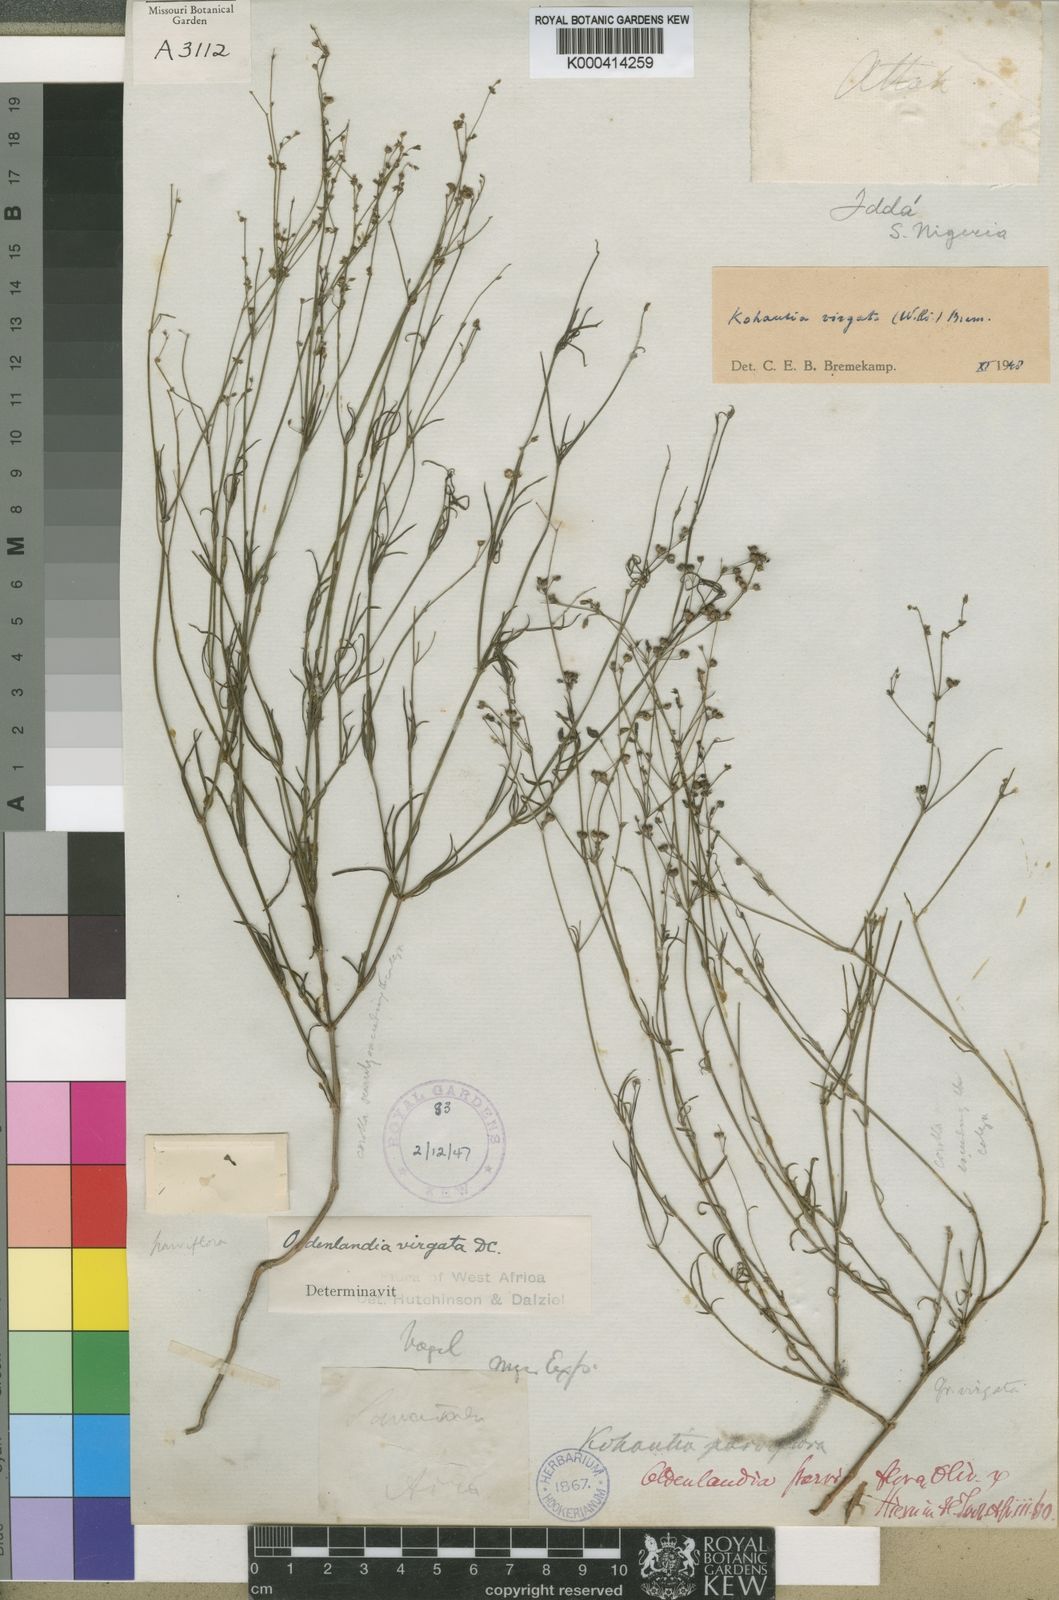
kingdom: Plantae
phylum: Tracheophyta
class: Magnoliopsida
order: Gentianales
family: Rubiaceae
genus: Cordylostigma
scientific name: Cordylostigma virgatum
